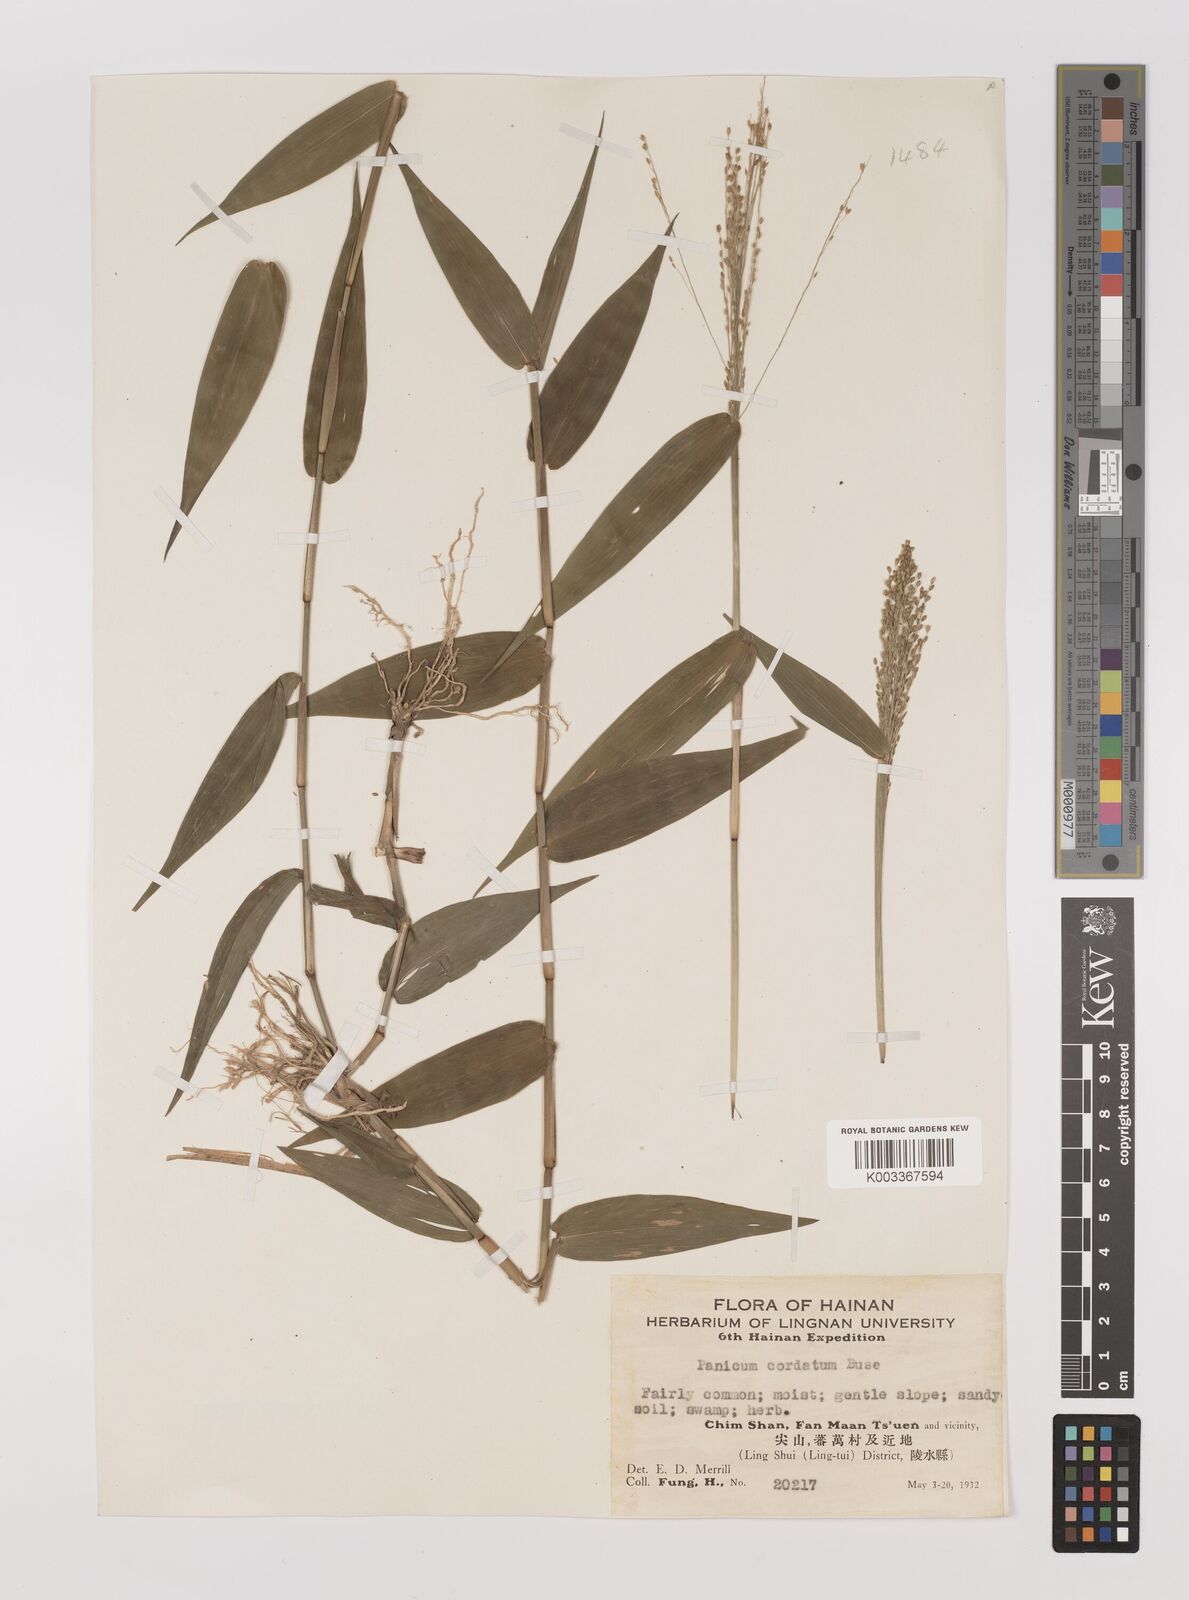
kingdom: Plantae
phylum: Tracheophyta
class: Liliopsida
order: Poales
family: Poaceae
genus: Panicum
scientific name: Panicum notatum
